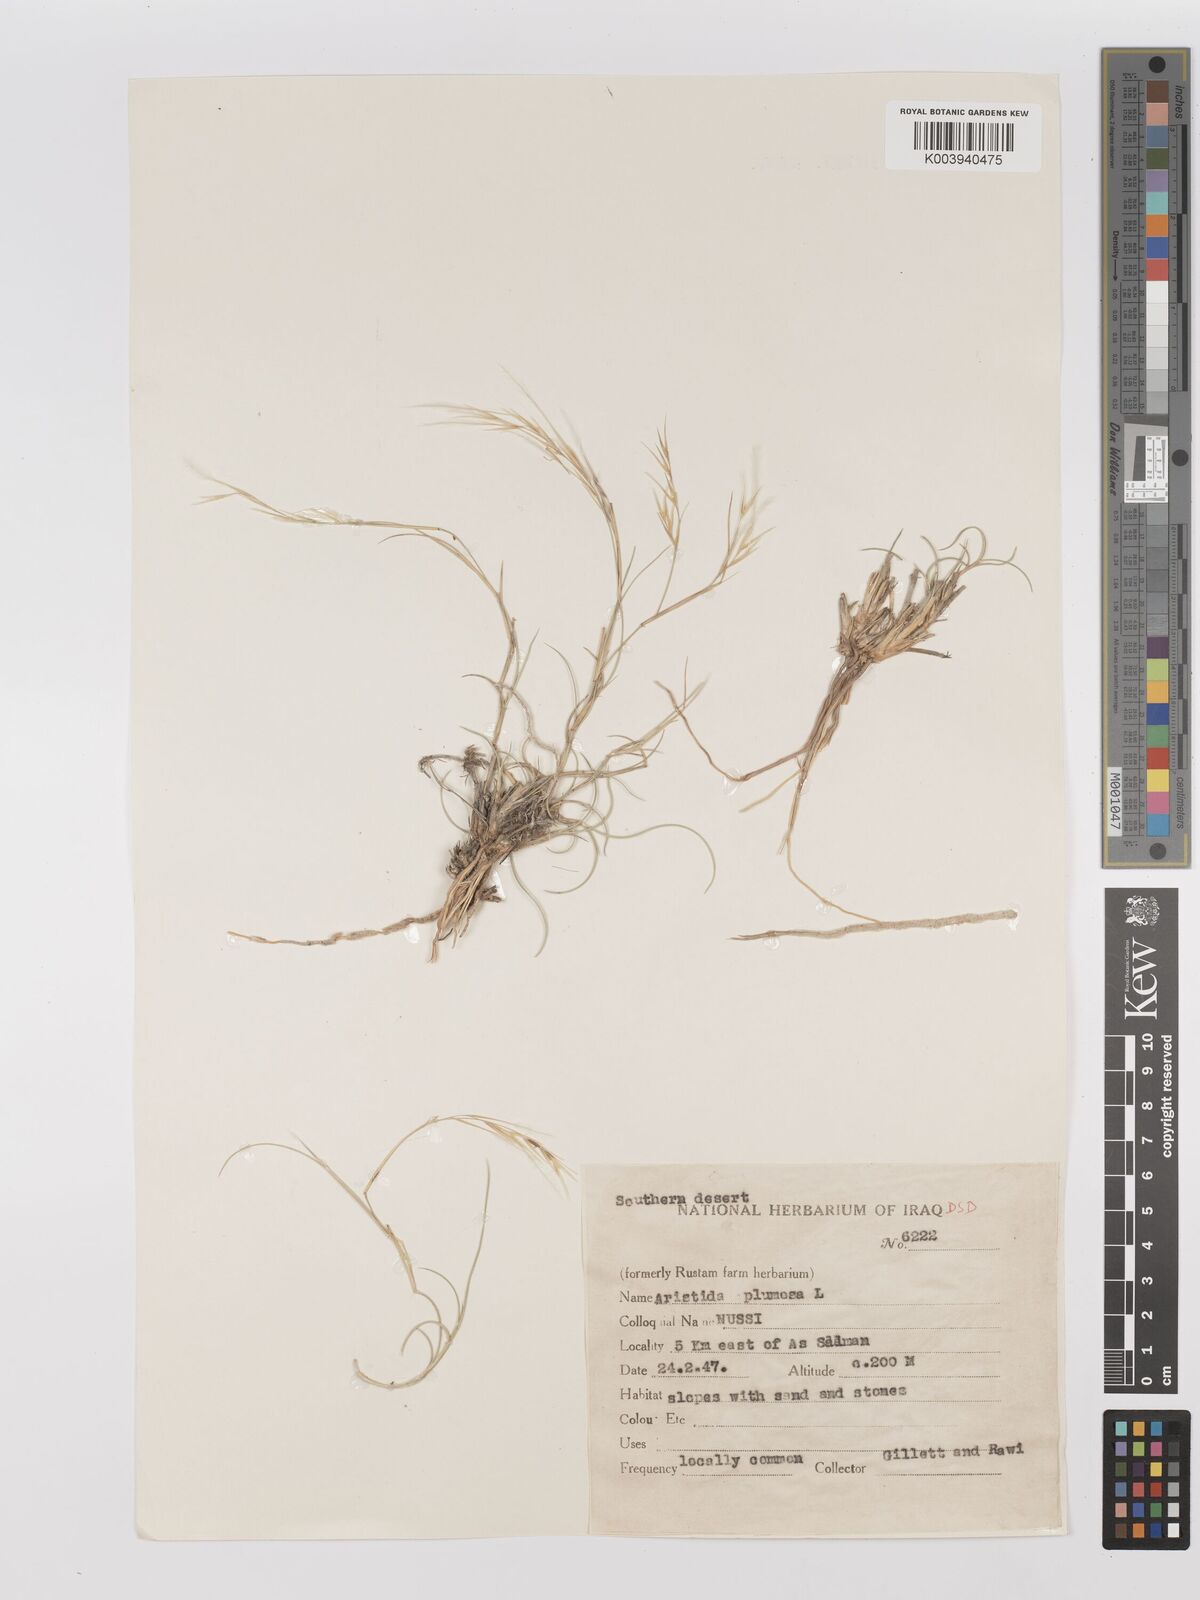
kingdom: Plantae
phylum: Tracheophyta
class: Liliopsida
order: Poales
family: Poaceae
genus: Stipagrostis
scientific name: Stipagrostis plumosa
